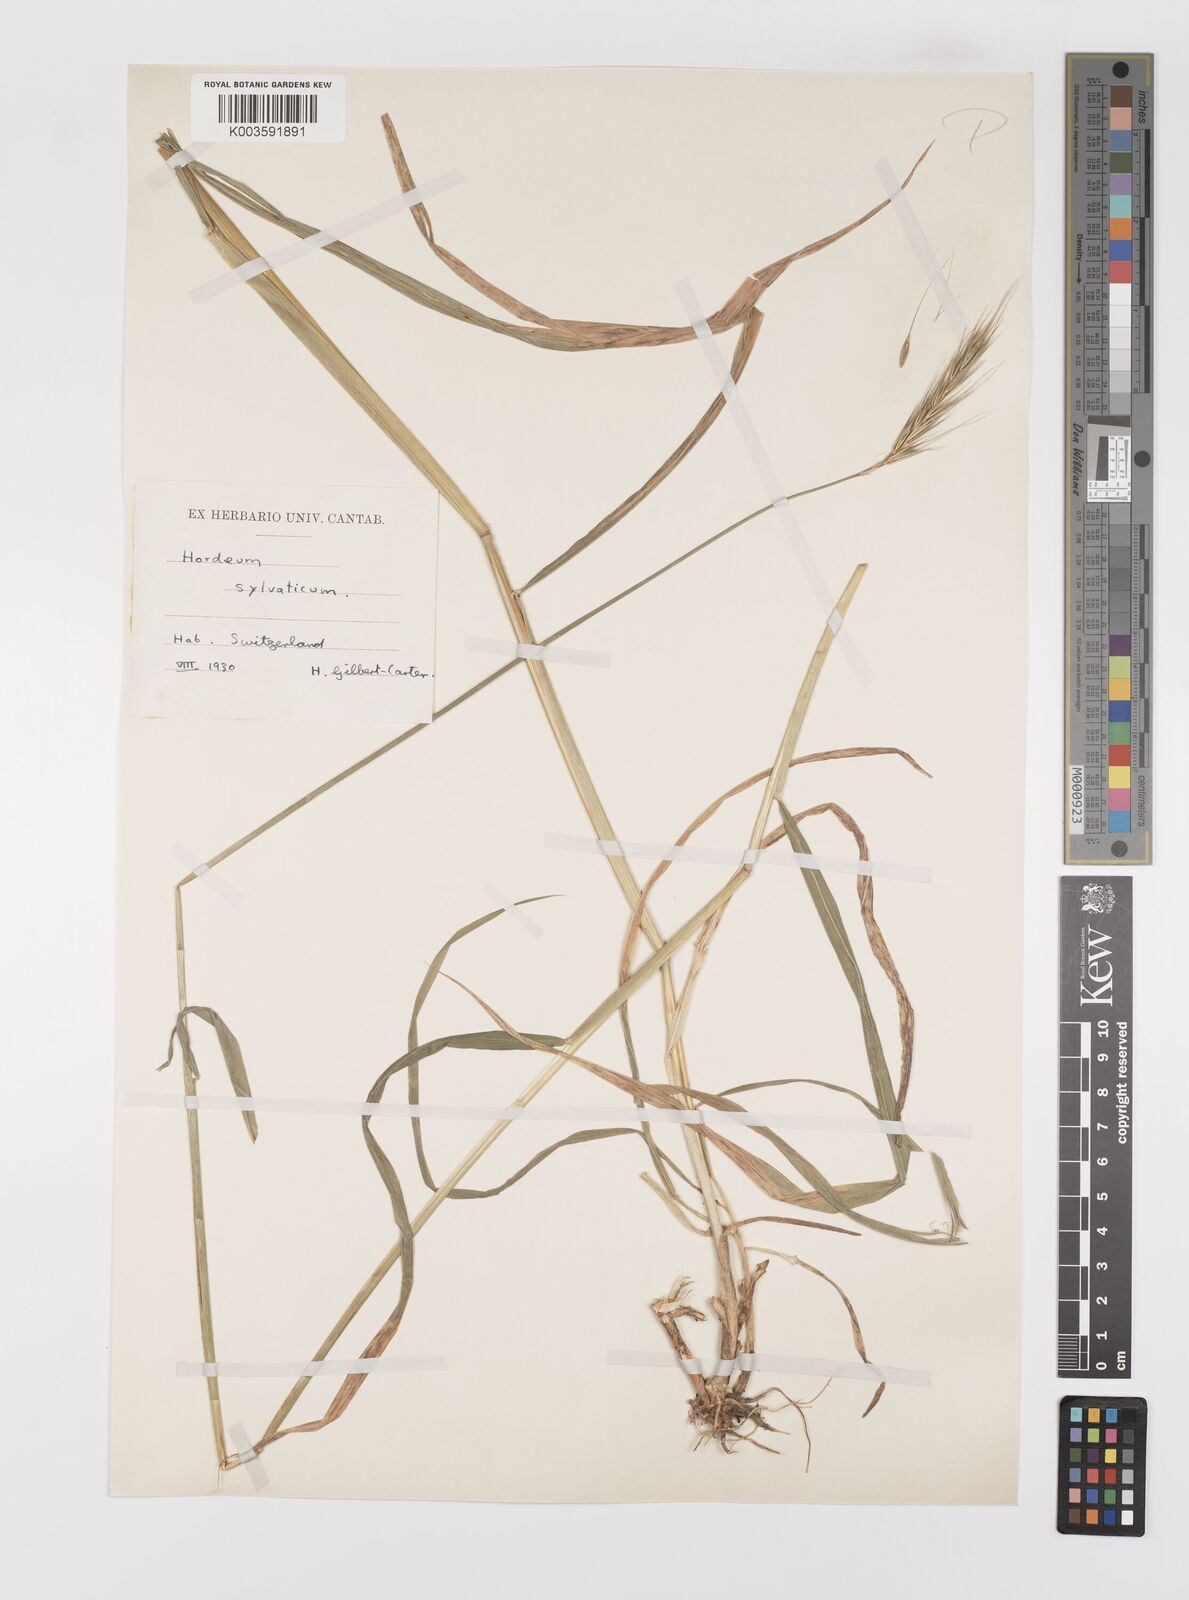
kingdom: Plantae
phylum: Tracheophyta
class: Liliopsida
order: Poales
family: Poaceae
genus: Hordelymus
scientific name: Hordelymus europaeus
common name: Wood-barley
